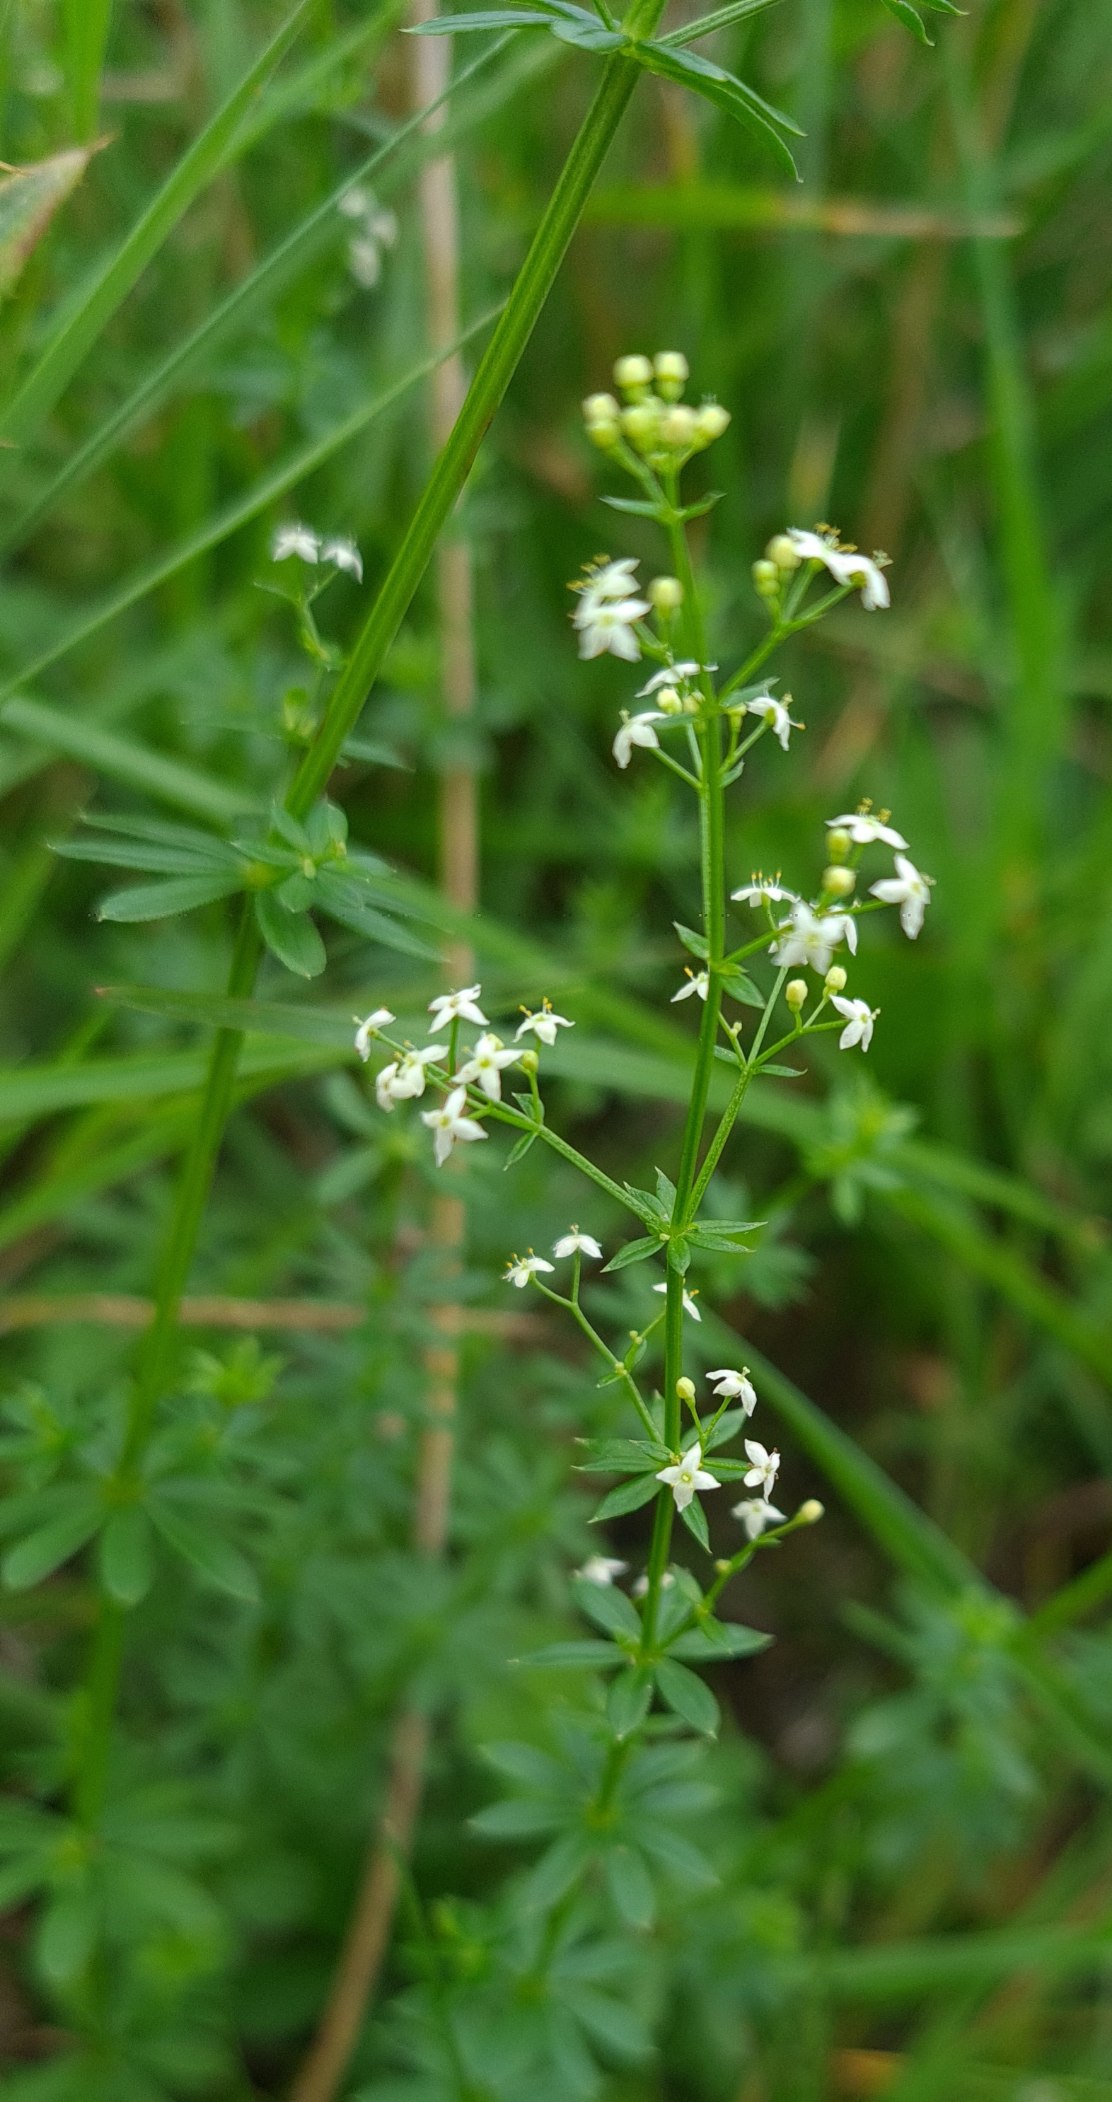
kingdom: Plantae
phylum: Tracheophyta
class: Magnoliopsida
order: Gentianales
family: Rubiaceae
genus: Galium
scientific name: Galium mollugo
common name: Hvid snerre
